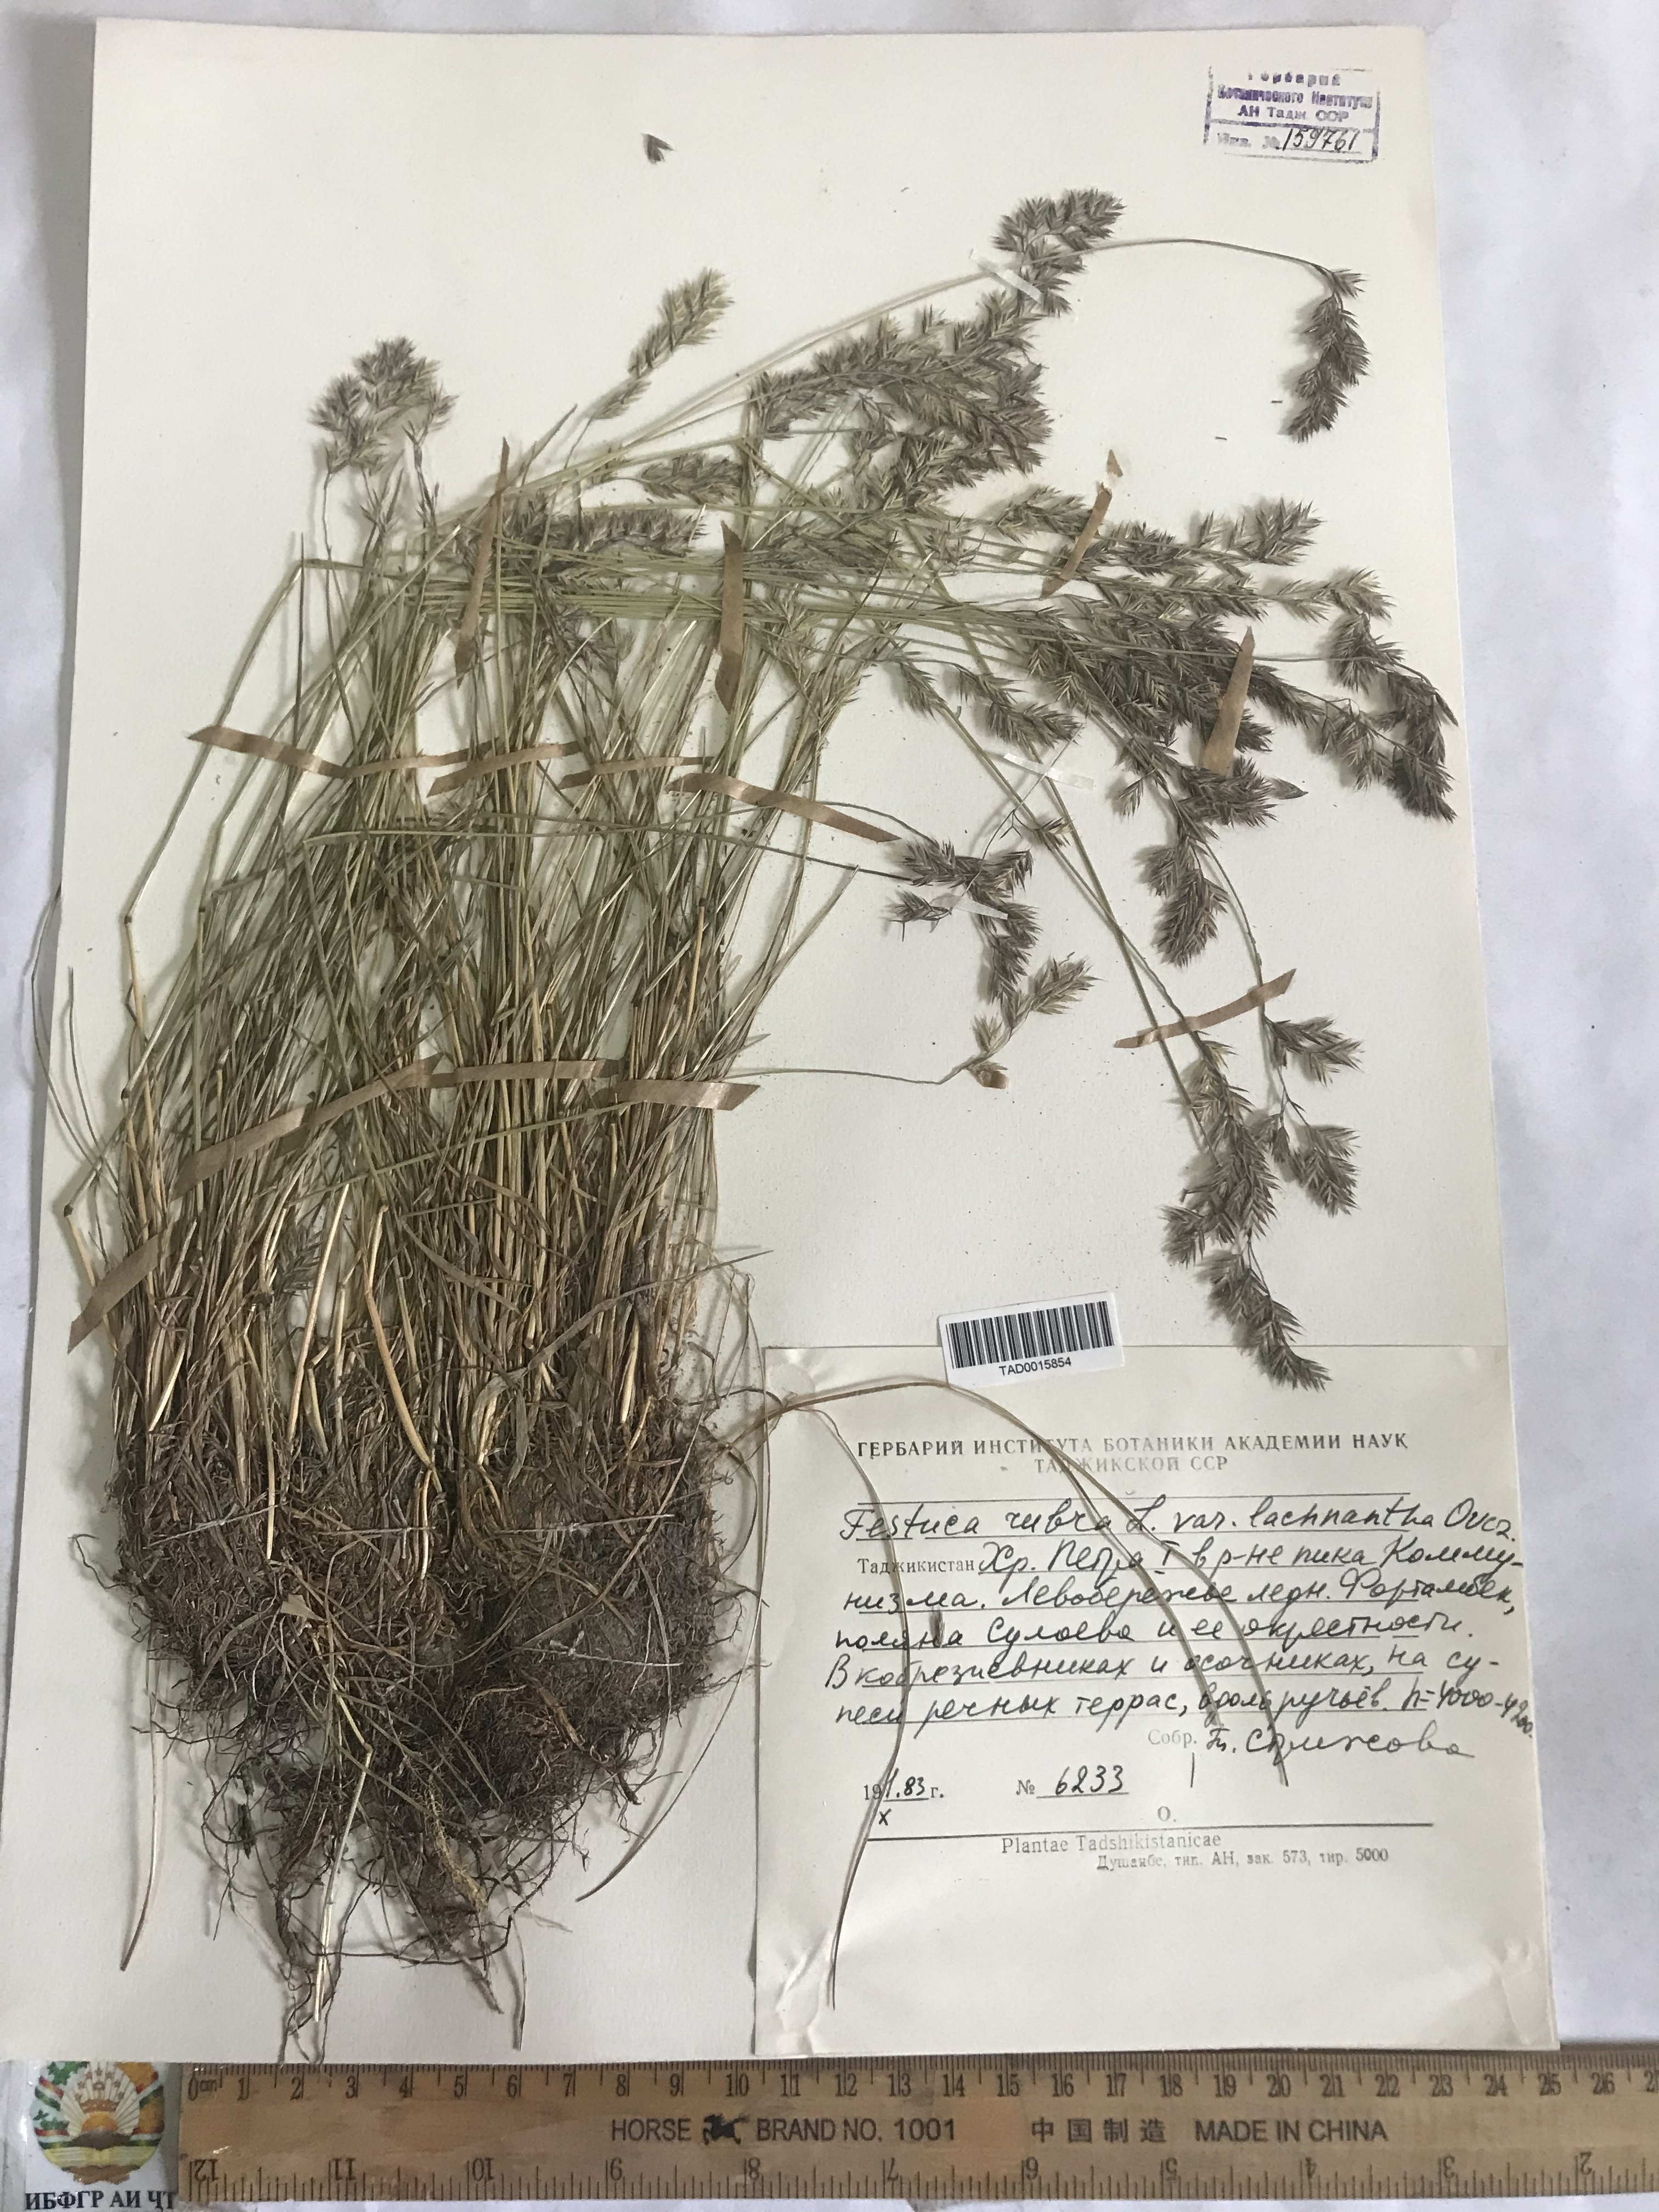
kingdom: Plantae
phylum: Tracheophyta
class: Liliopsida
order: Poales
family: Poaceae
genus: Festuca
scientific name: Festuca rubra
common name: Red fescue
